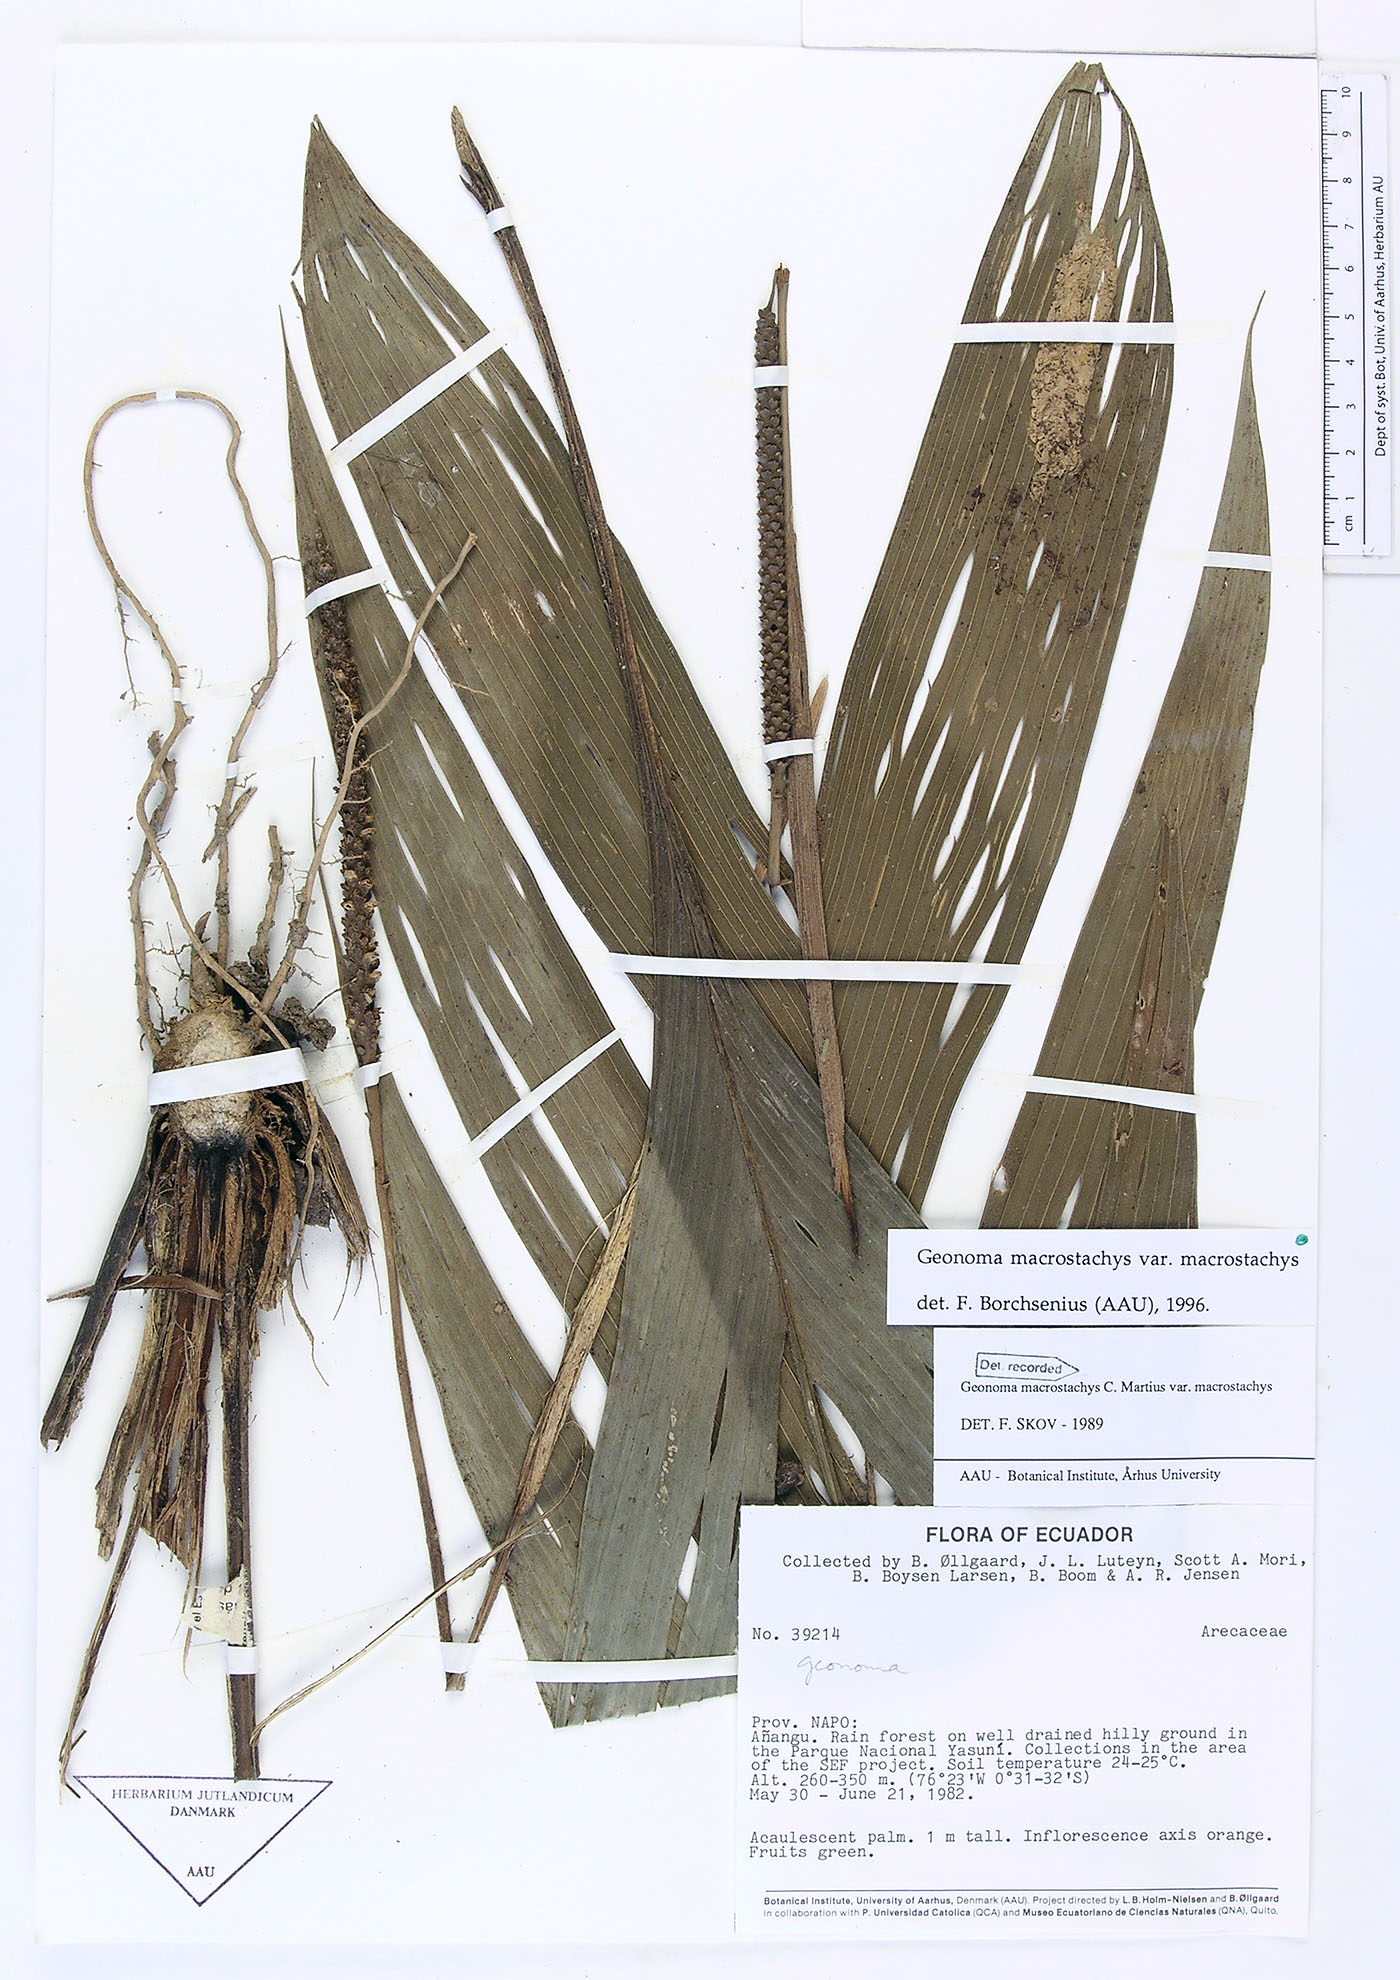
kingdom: Plantae
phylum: Tracheophyta
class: Liliopsida
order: Arecales
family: Arecaceae
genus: Geonoma
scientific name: Geonoma macrostachys
